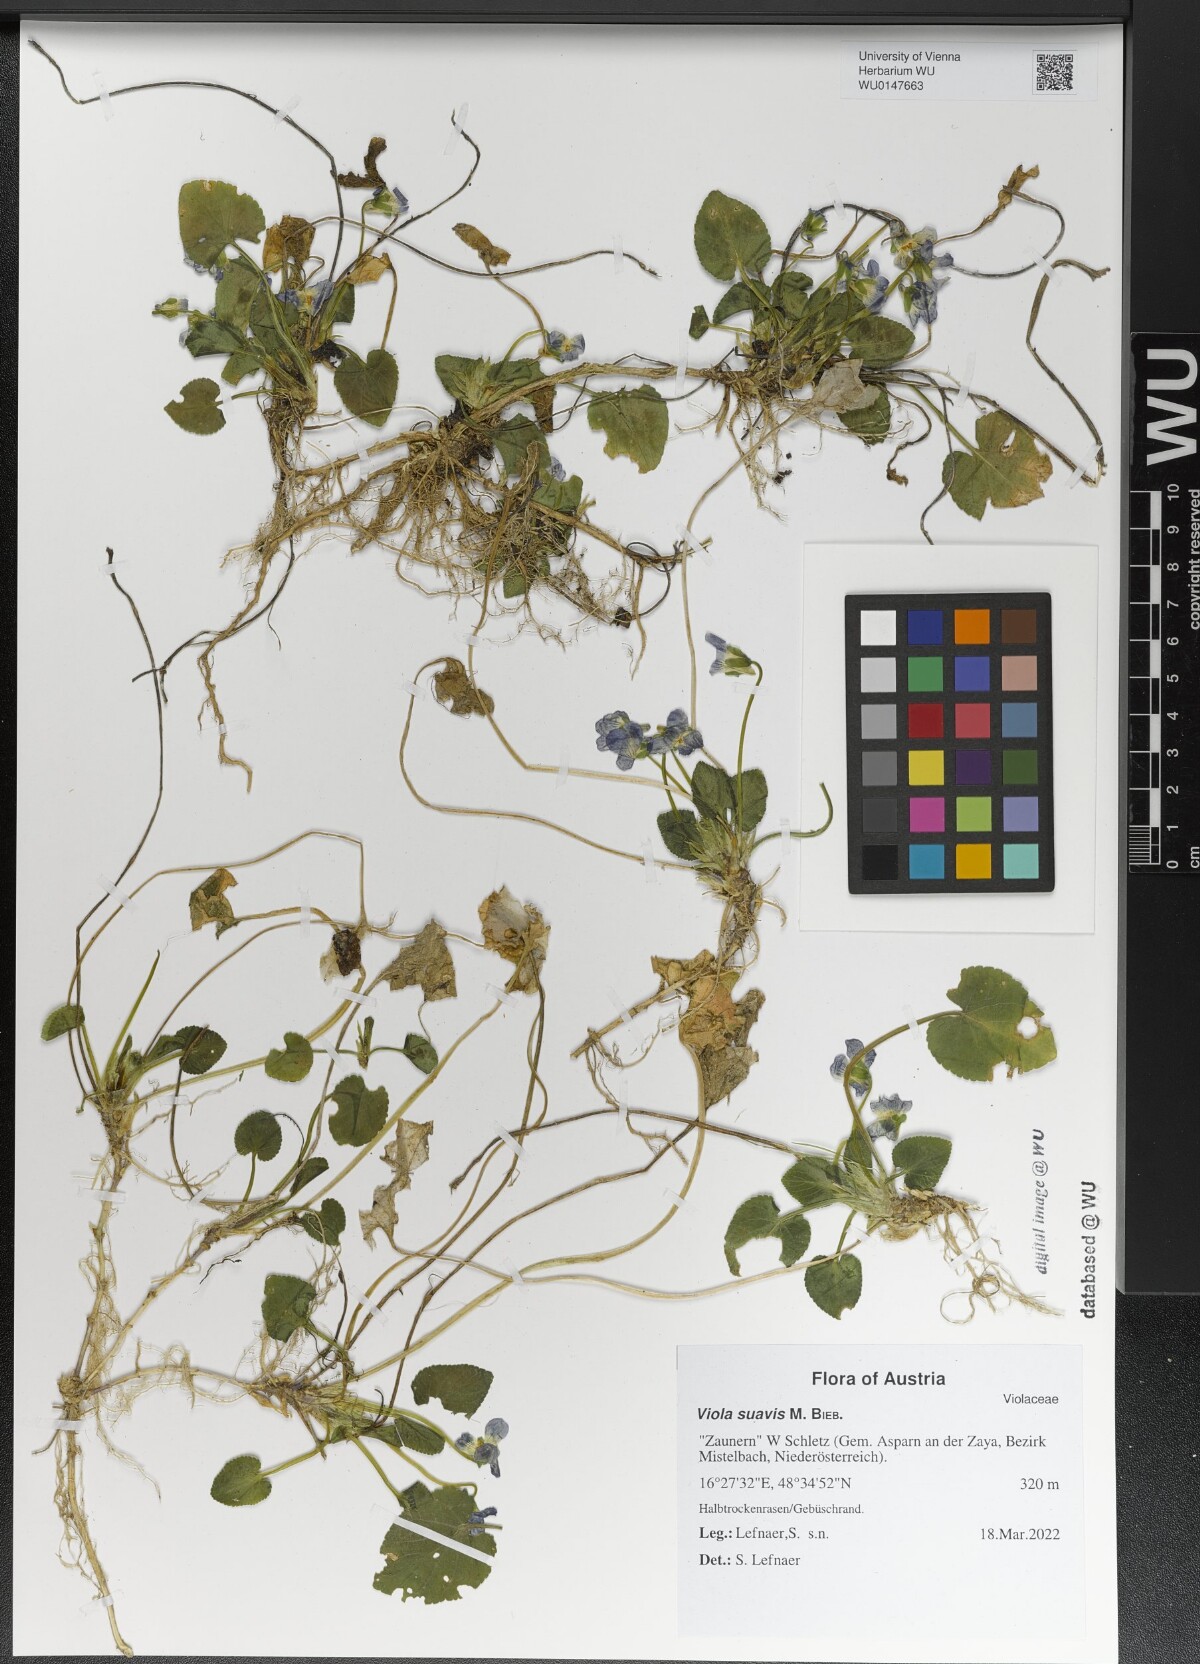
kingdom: Plantae
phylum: Tracheophyta
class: Magnoliopsida
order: Malpighiales
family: Violaceae
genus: Viola
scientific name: Viola suavis
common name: Russian violet
